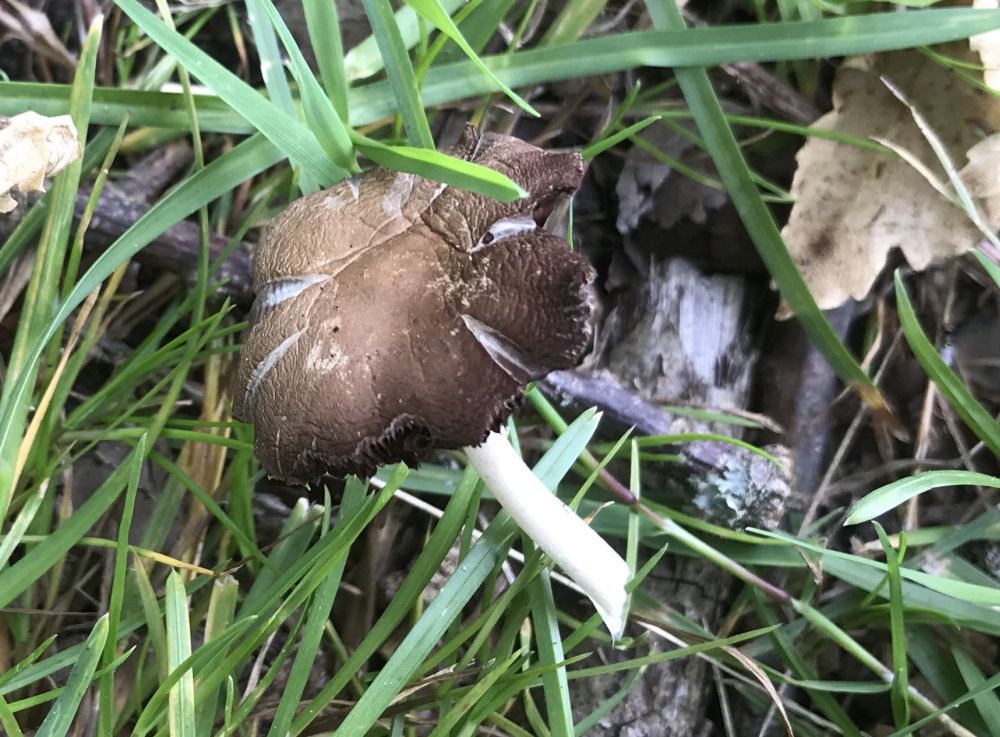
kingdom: Fungi
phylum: Basidiomycota
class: Agaricomycetes
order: Agaricales
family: Psathyrellaceae
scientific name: Psathyrellaceae
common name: mørkhatfamilien
